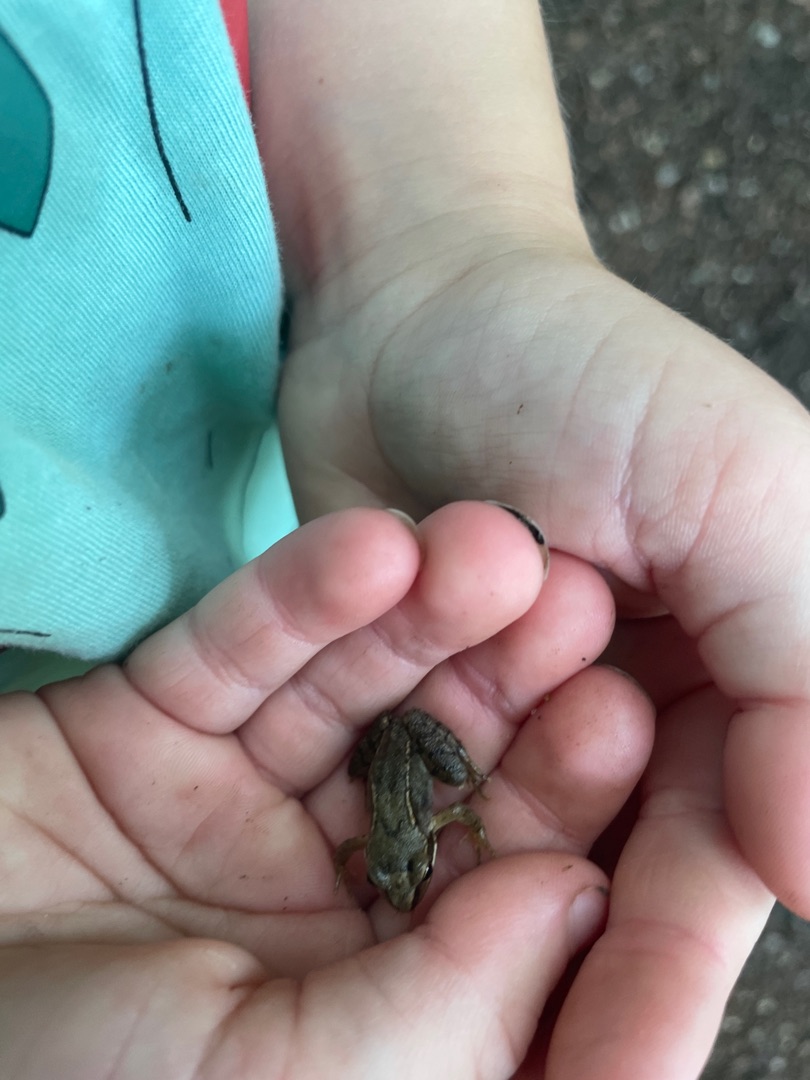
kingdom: Animalia
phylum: Chordata
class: Amphibia
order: Anura
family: Ranidae
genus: Rana
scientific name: Rana temporaria
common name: Butsnudet frø
